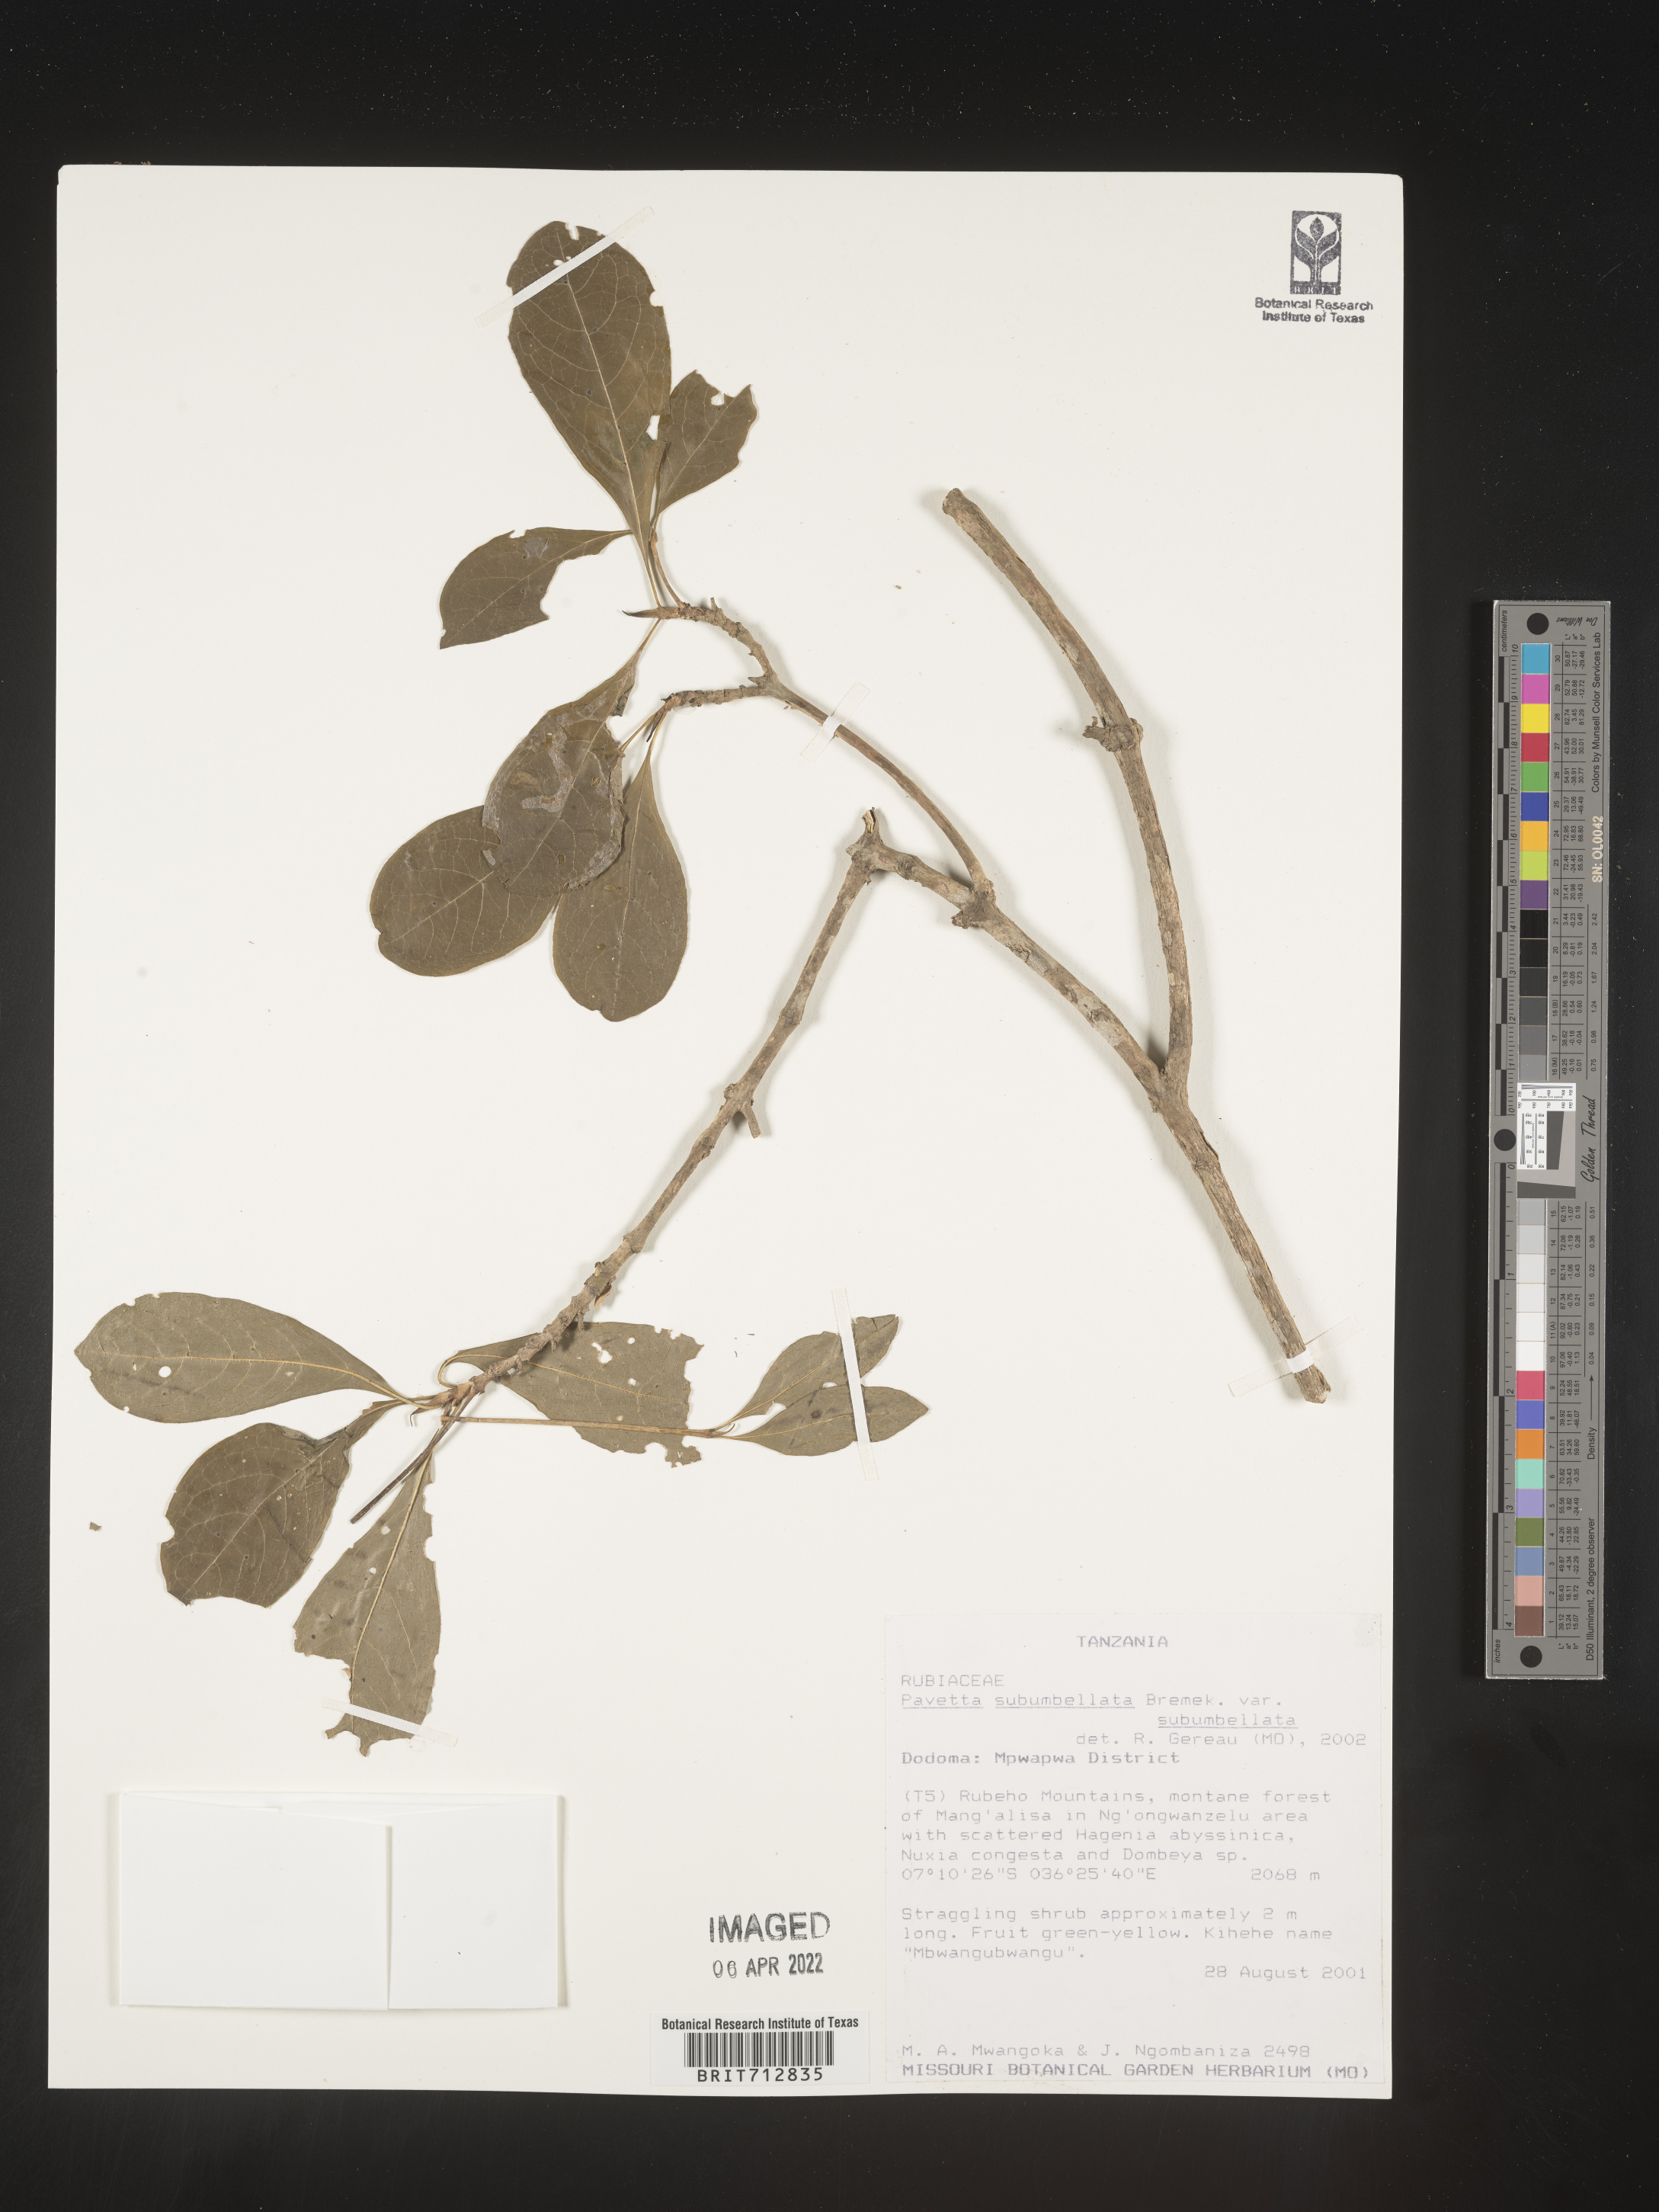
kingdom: Plantae
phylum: Tracheophyta
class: Magnoliopsida
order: Gentianales
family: Rubiaceae
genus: Pavetta
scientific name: Pavetta
